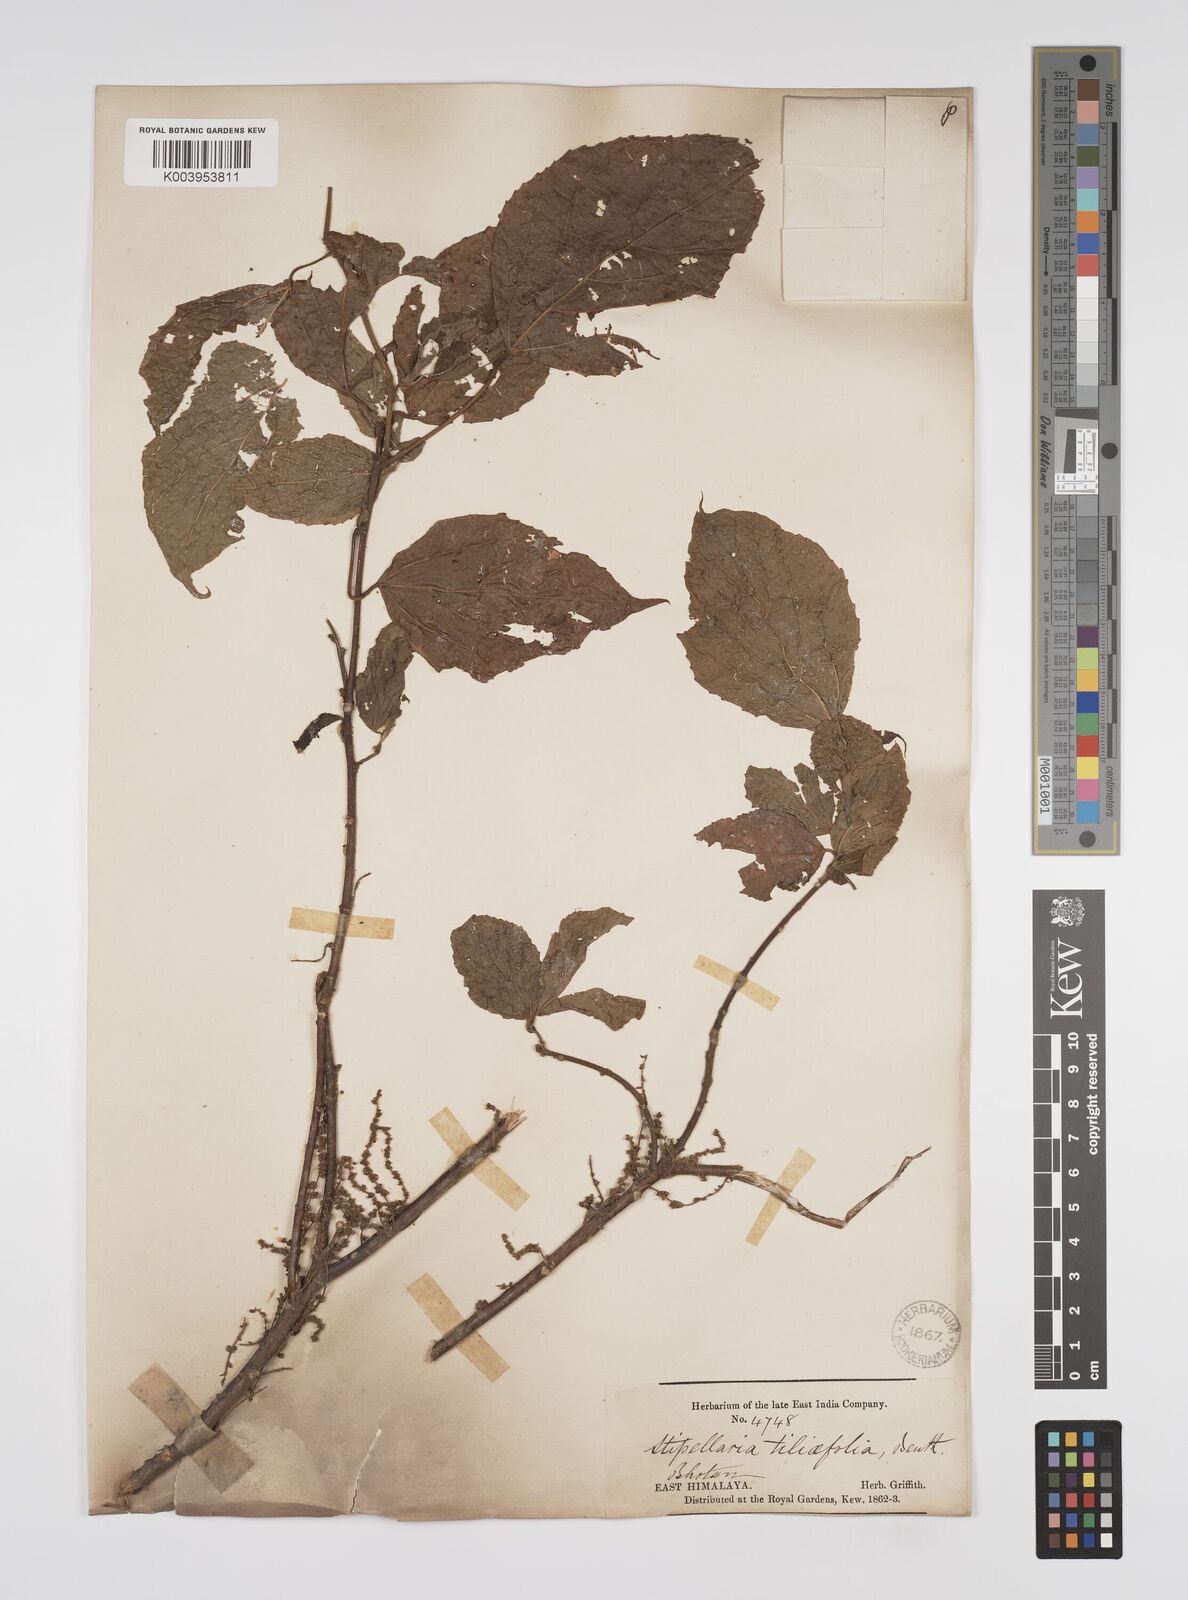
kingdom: Plantae
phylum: Tracheophyta
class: Magnoliopsida
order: Malpighiales
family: Euphorbiaceae
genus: Alchornea
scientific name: Alchornea tiliifolia
